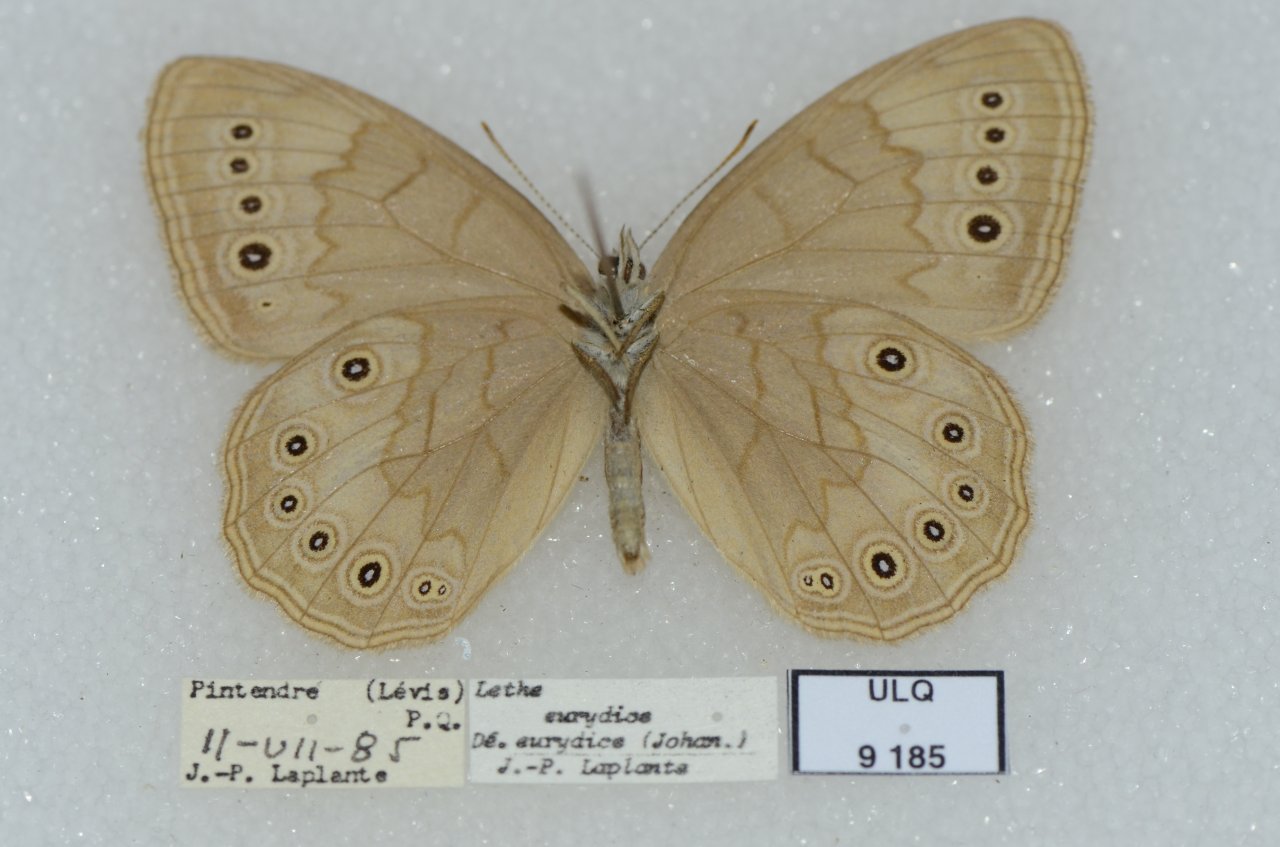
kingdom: Animalia
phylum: Arthropoda
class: Insecta
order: Lepidoptera
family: Nymphalidae
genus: Lethe
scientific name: Lethe eurydice
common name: Eyed Brown
